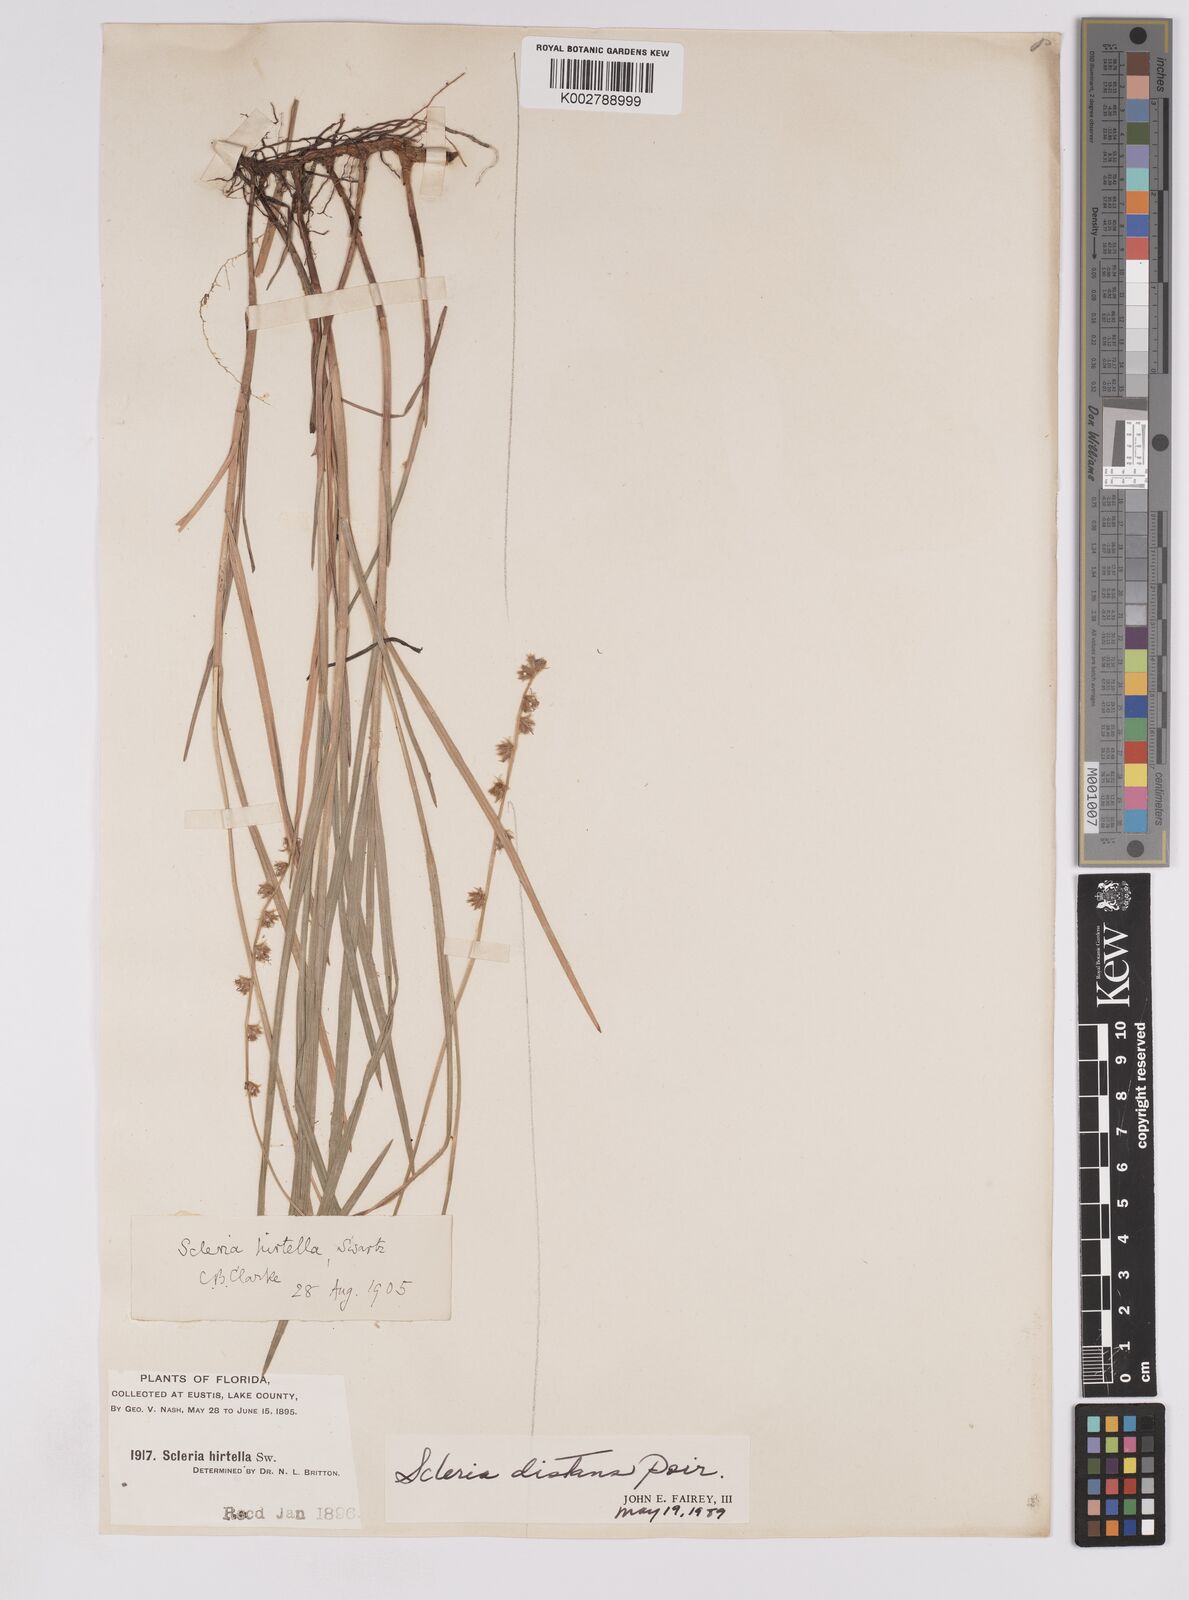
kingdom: Plantae
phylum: Tracheophyta
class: Liliopsida
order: Poales
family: Cyperaceae
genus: Scleria
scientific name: Scleria distans
